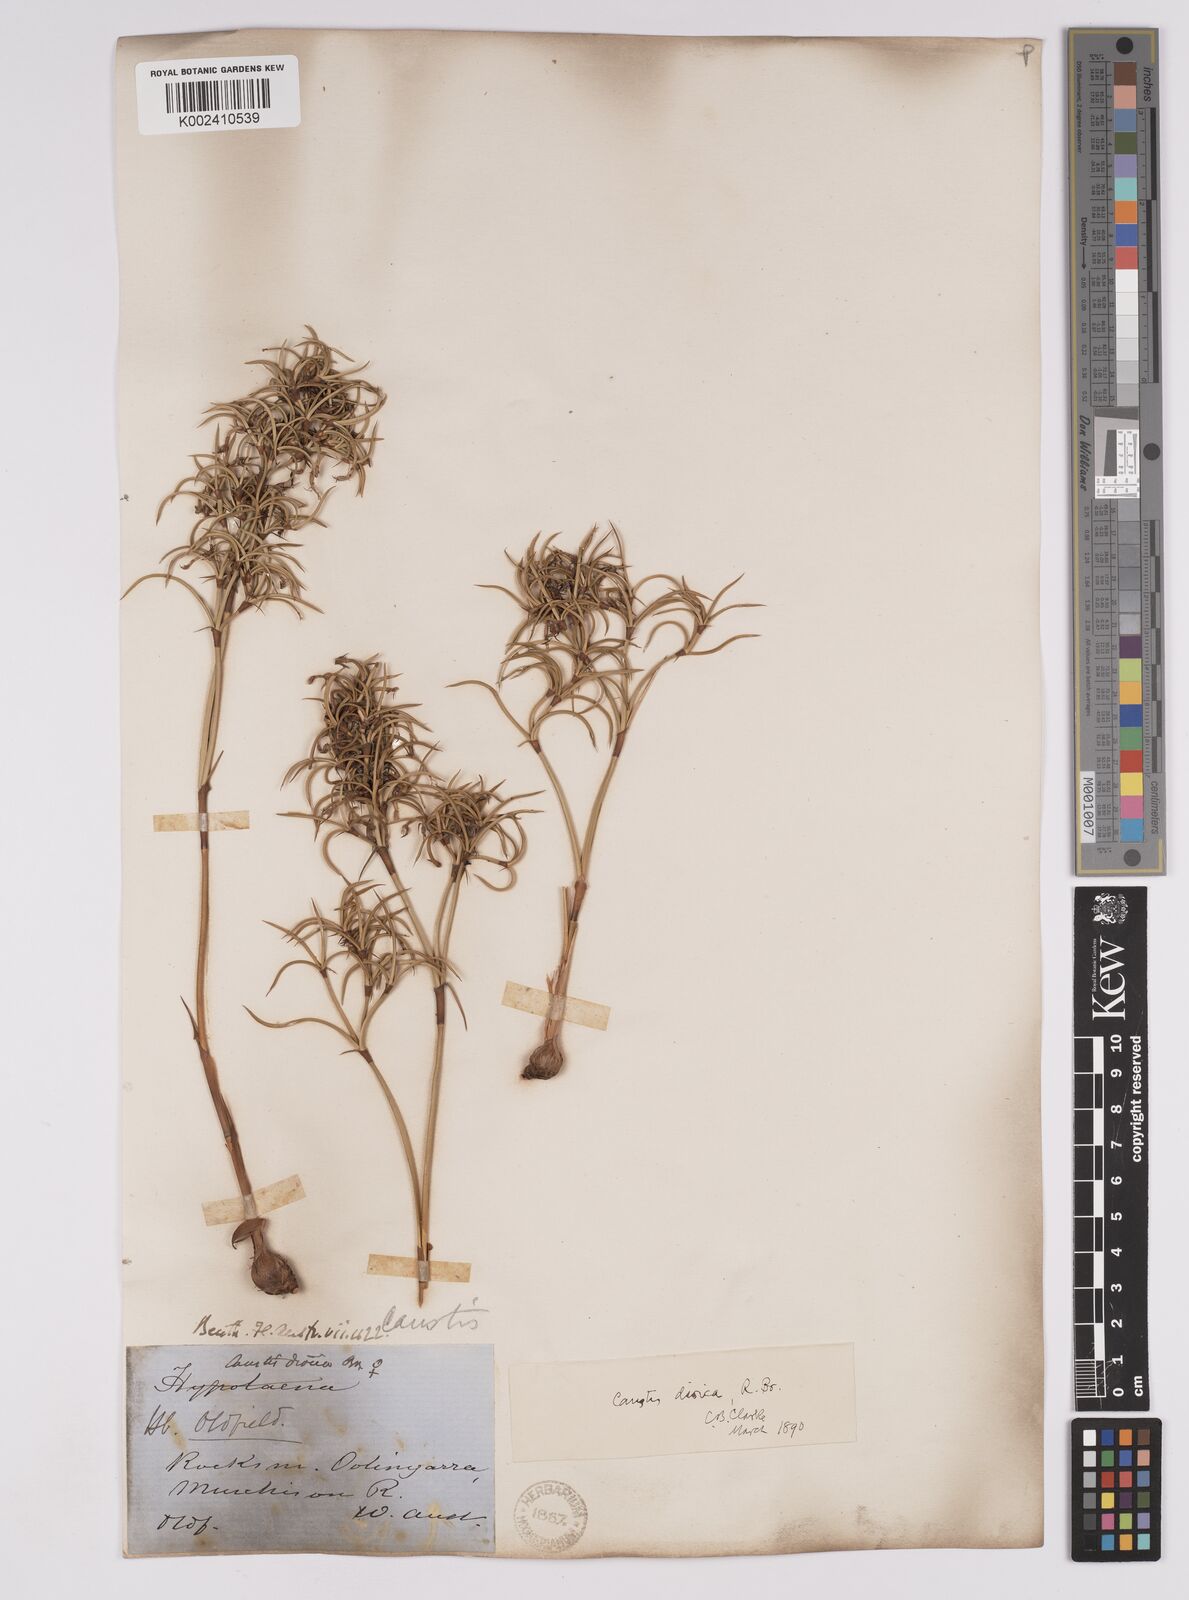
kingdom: Plantae
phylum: Tracheophyta
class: Liliopsida
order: Poales
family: Cyperaceae
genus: Caustis
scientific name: Caustis dioica
